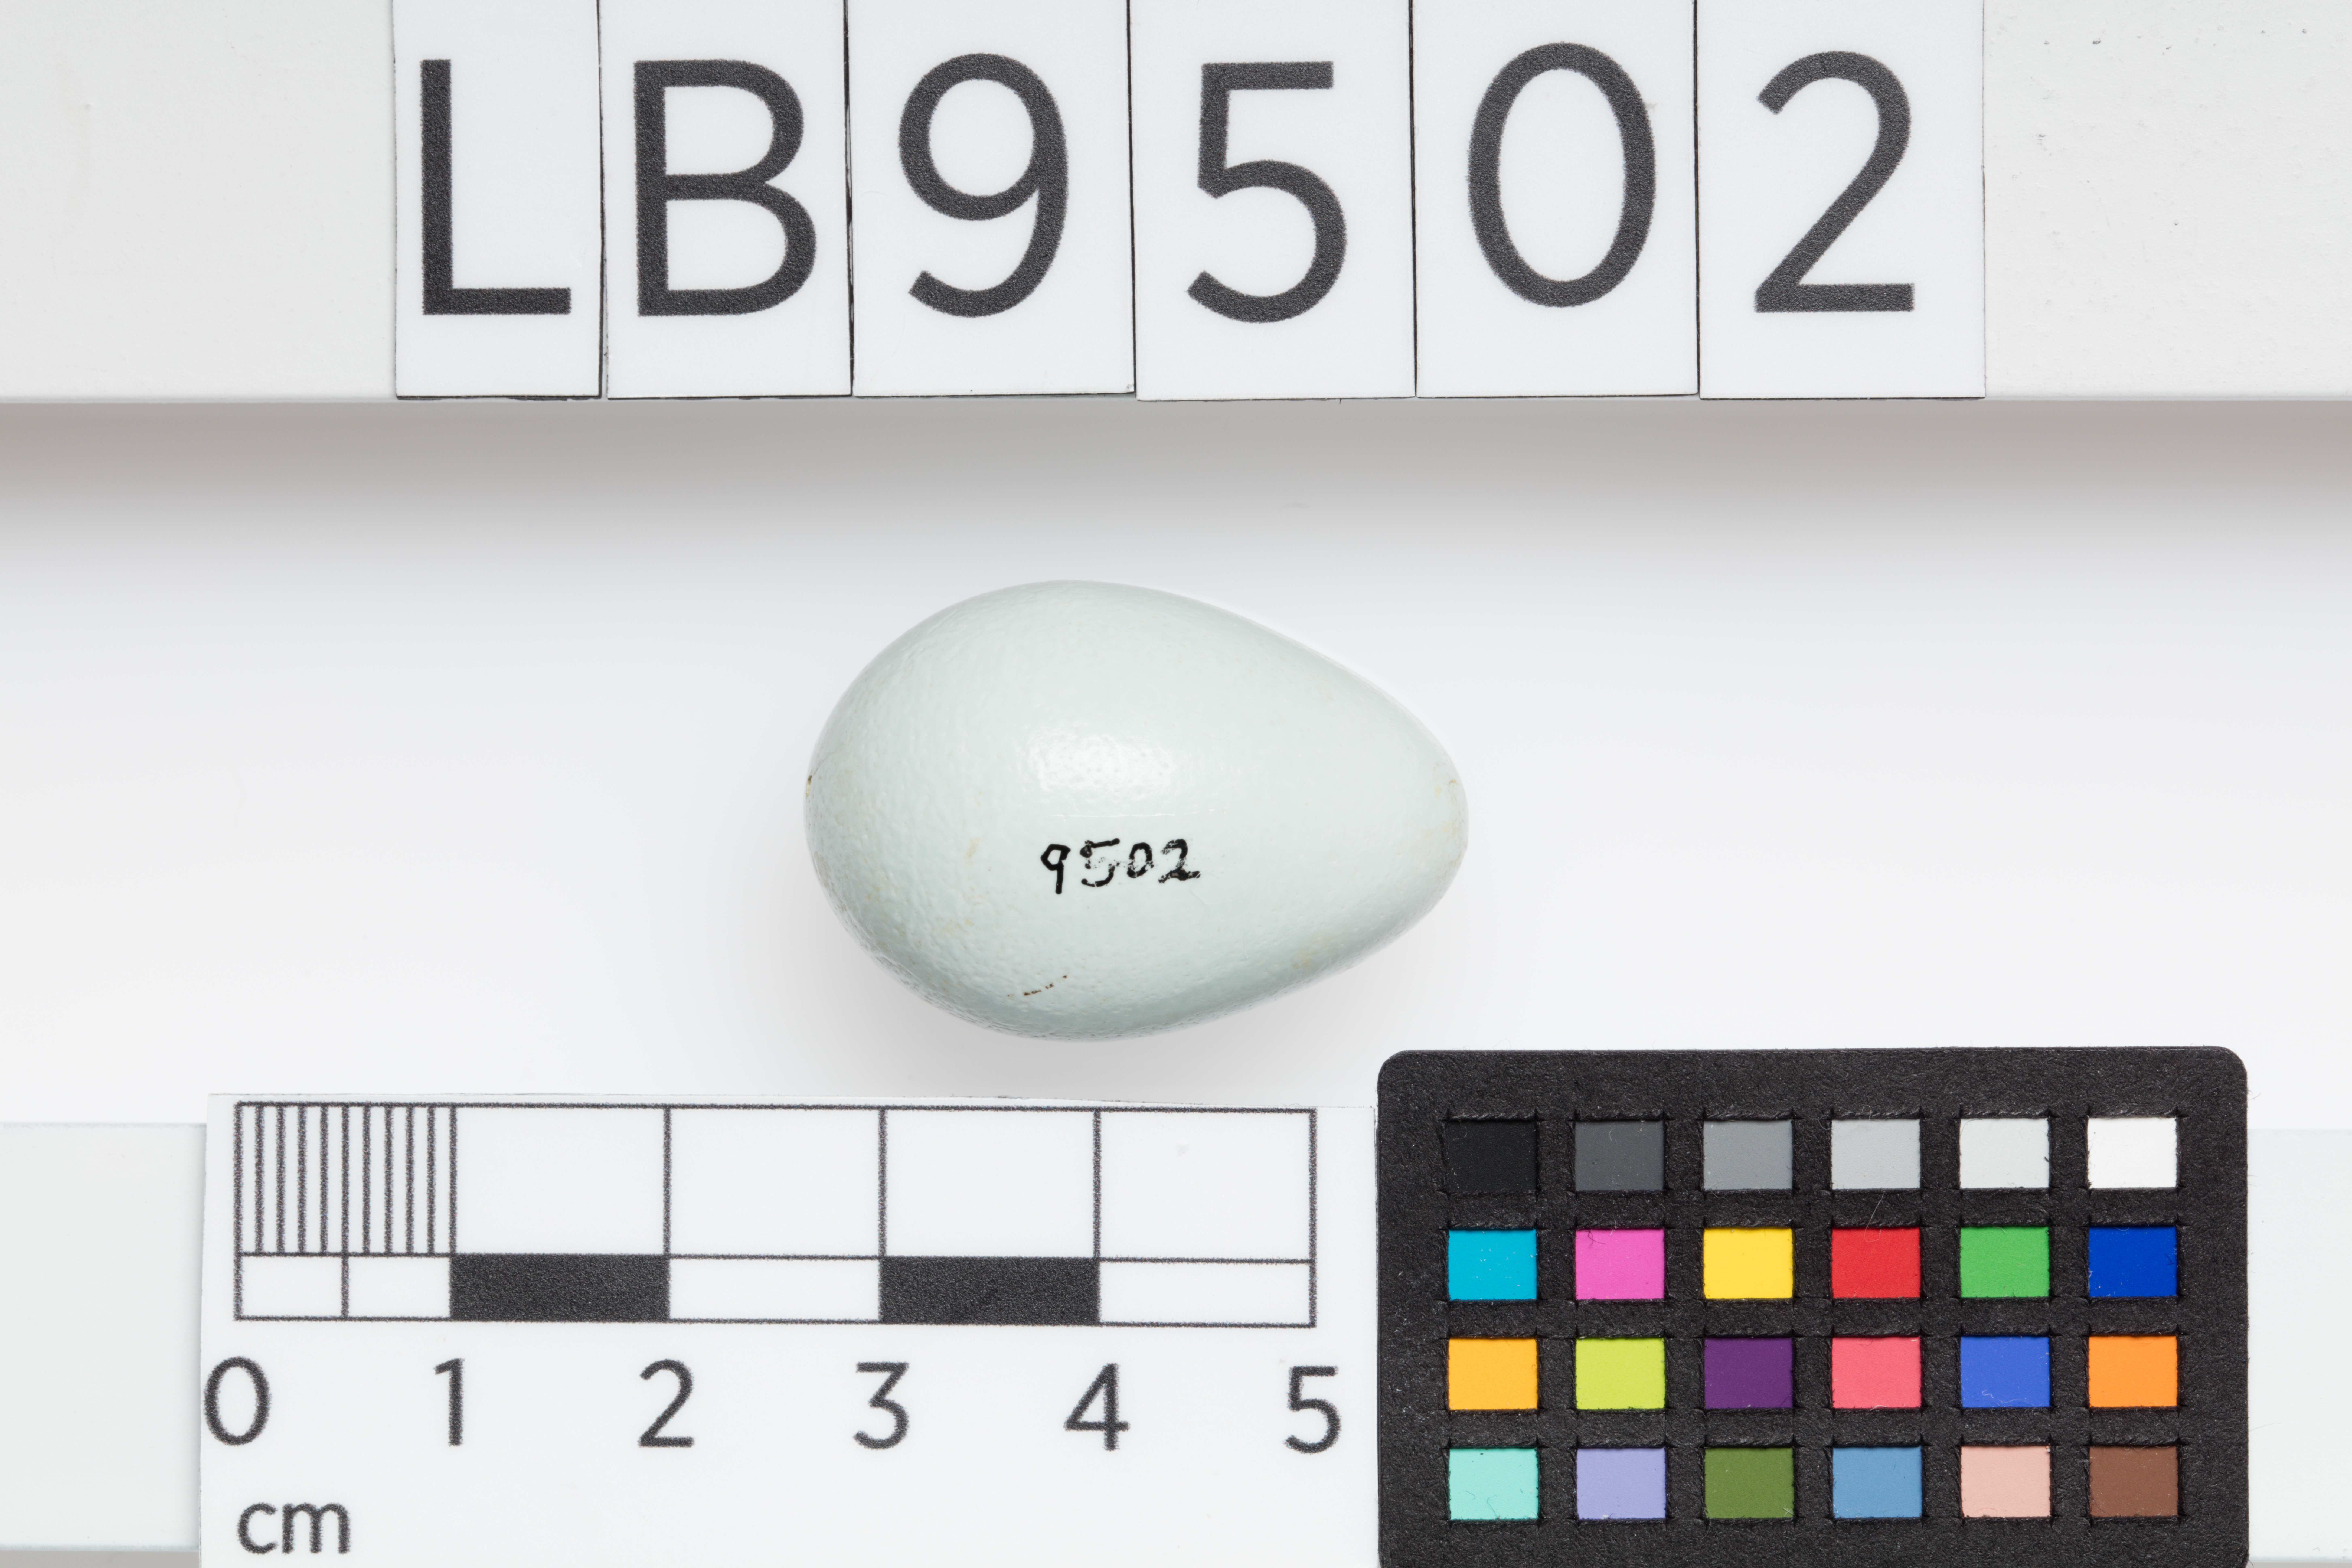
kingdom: Animalia
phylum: Chordata
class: Aves
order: Passeriformes
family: Sturnidae
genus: Acridotheres
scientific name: Acridotheres tristis
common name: Common myna
